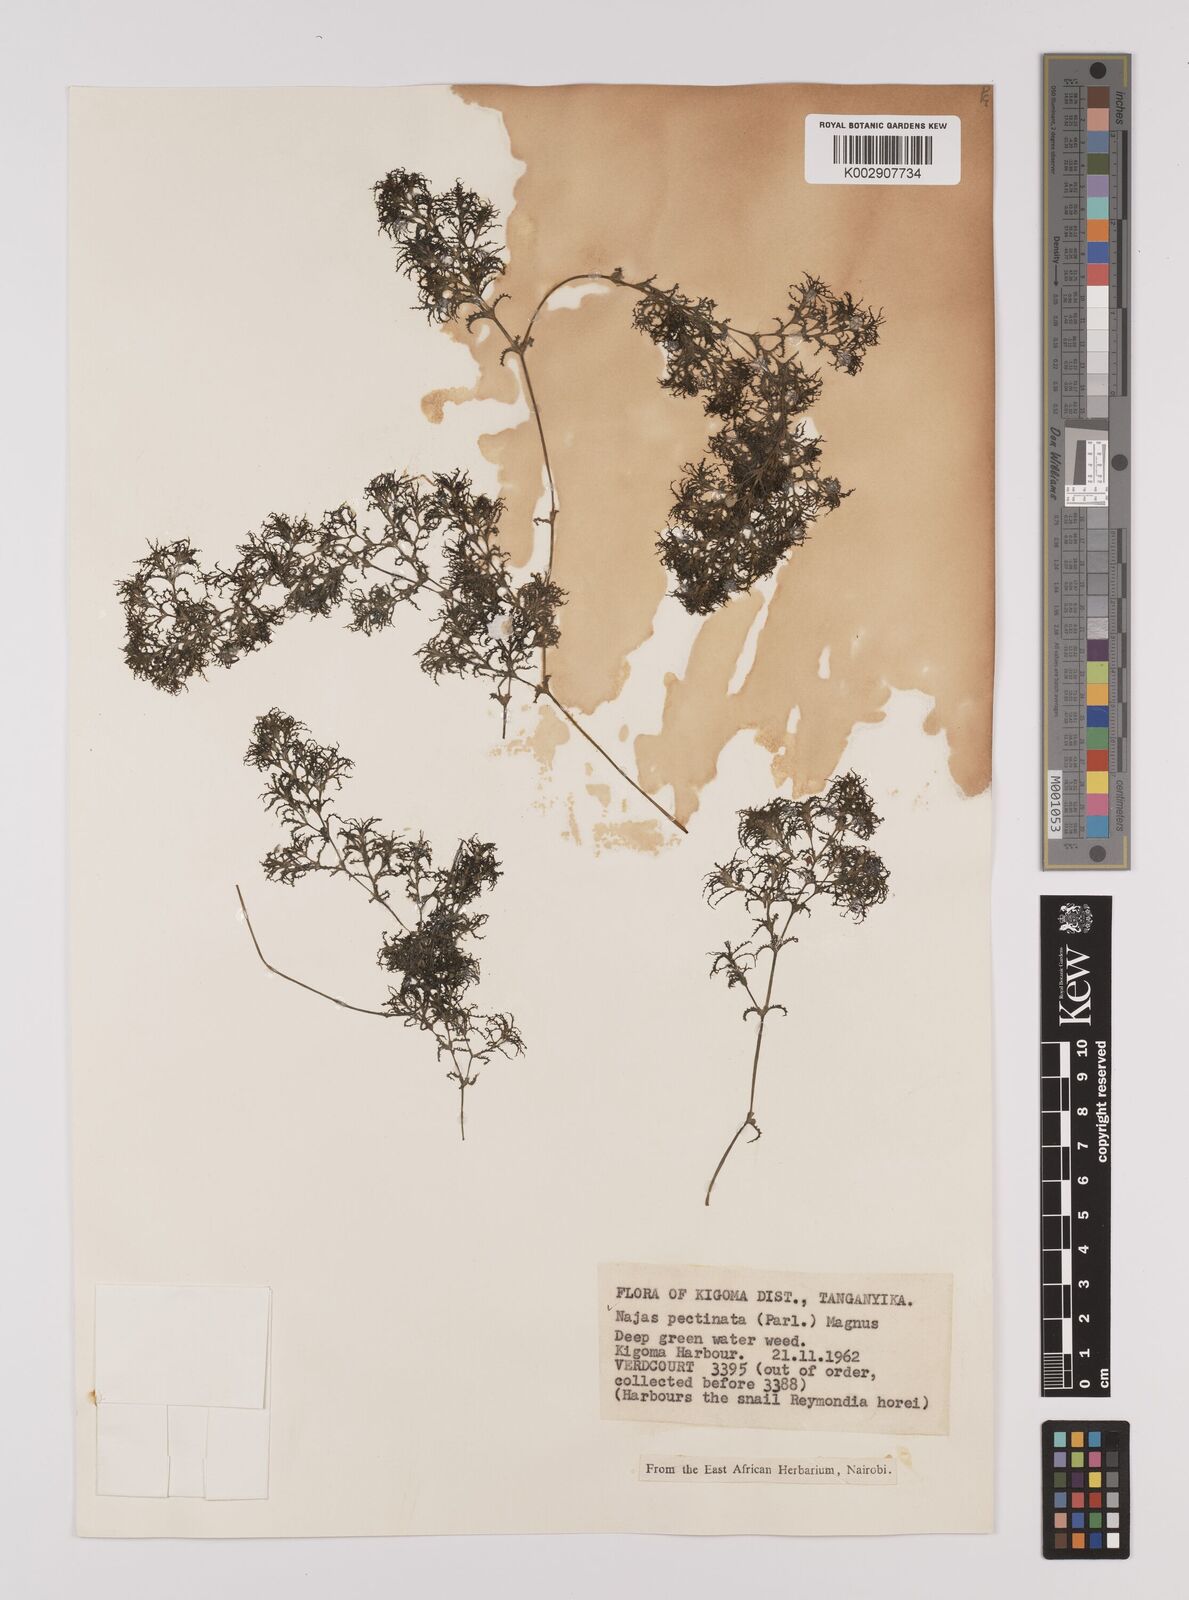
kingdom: Plantae
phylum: Tracheophyta
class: Liliopsida
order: Alismatales
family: Hydrocharitaceae
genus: Najas
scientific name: Najas horrida
